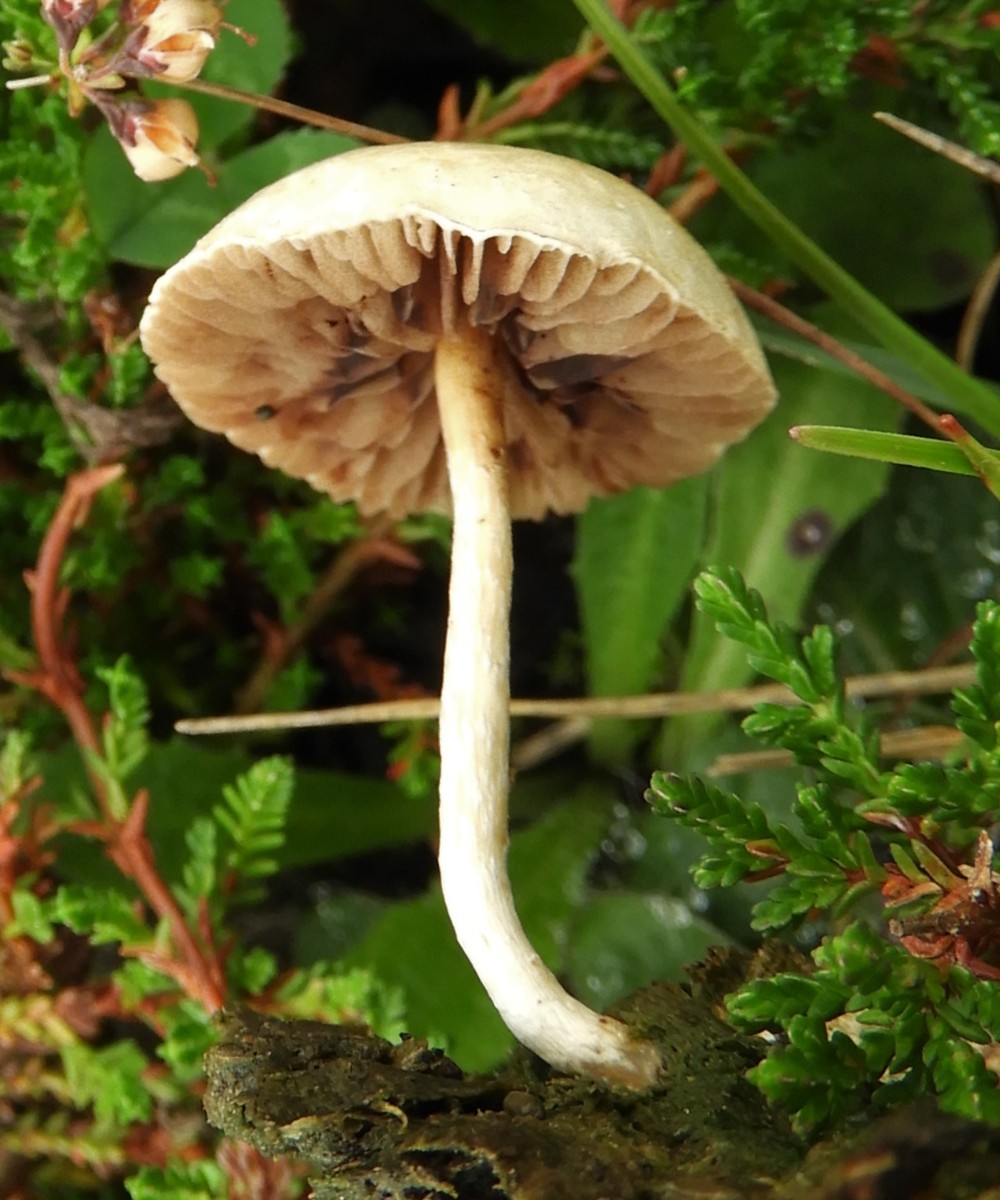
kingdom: Fungi
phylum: Basidiomycota
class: Agaricomycetes
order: Agaricales
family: Strophariaceae
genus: Agrocybe
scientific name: Agrocybe pediades
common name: almindelig agerhat
